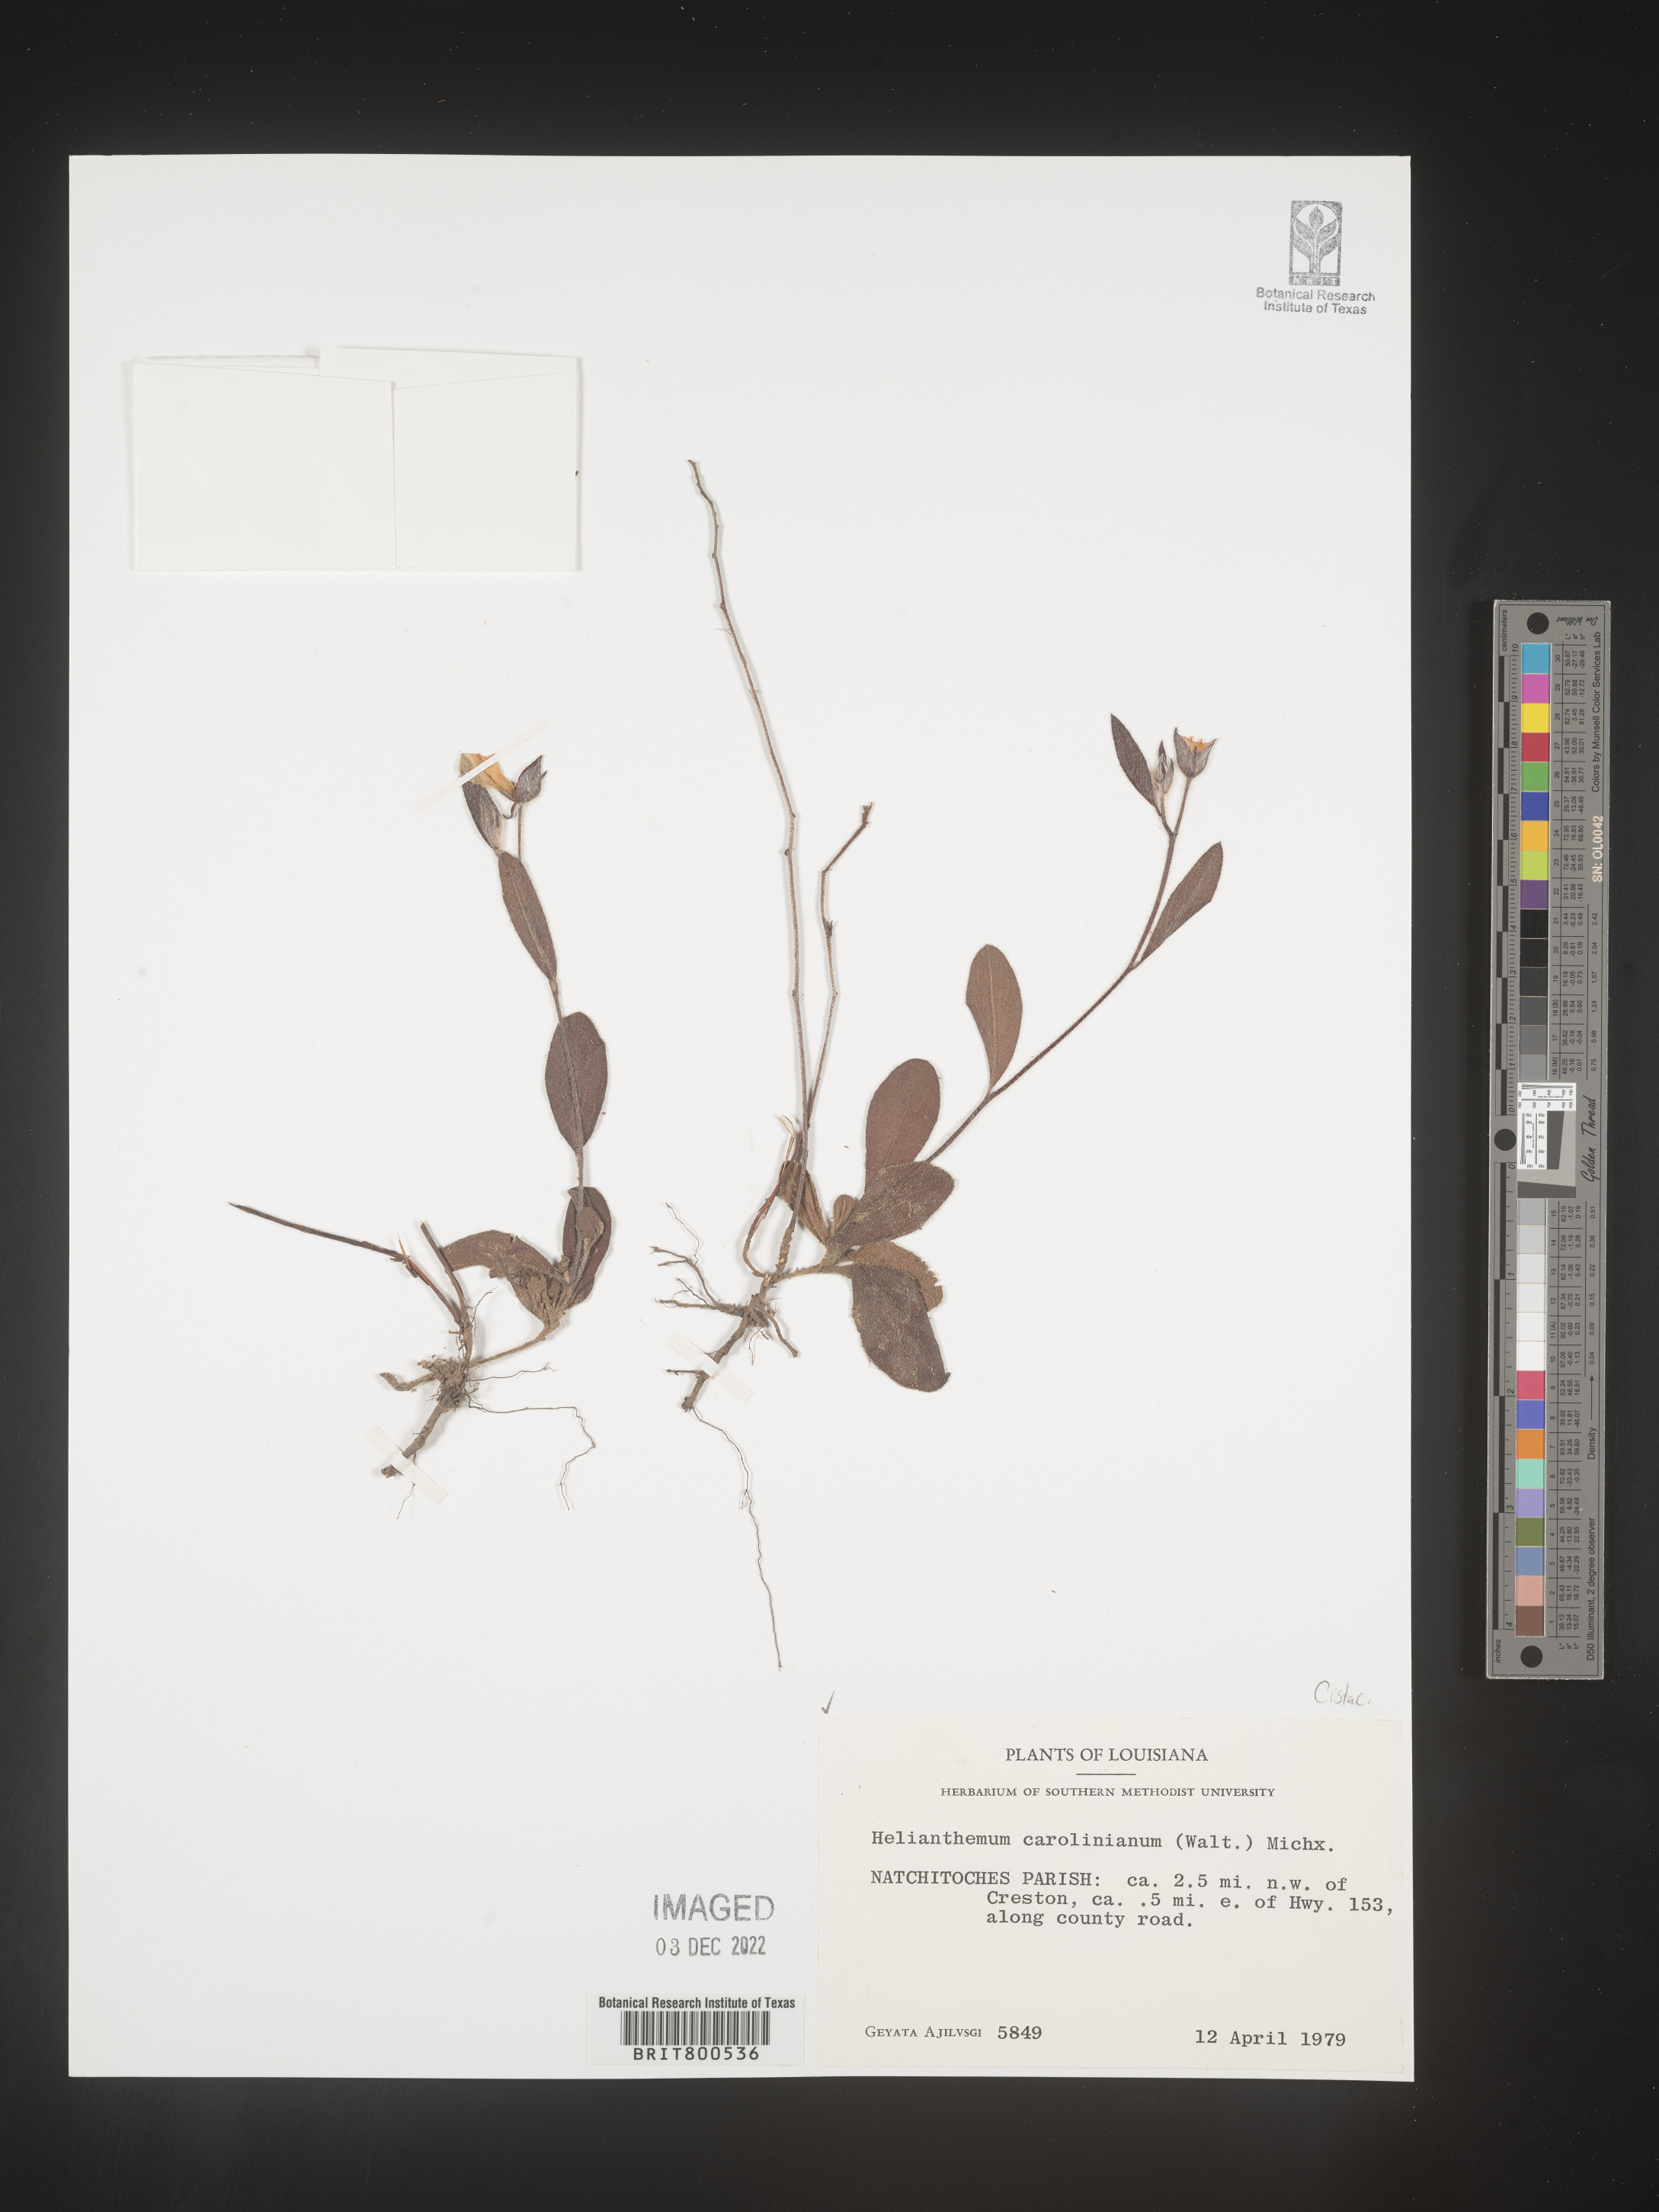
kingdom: Plantae
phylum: Tracheophyta
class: Magnoliopsida
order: Malvales
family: Cistaceae
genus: Crocanthemum
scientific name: Crocanthemum carolinianum
